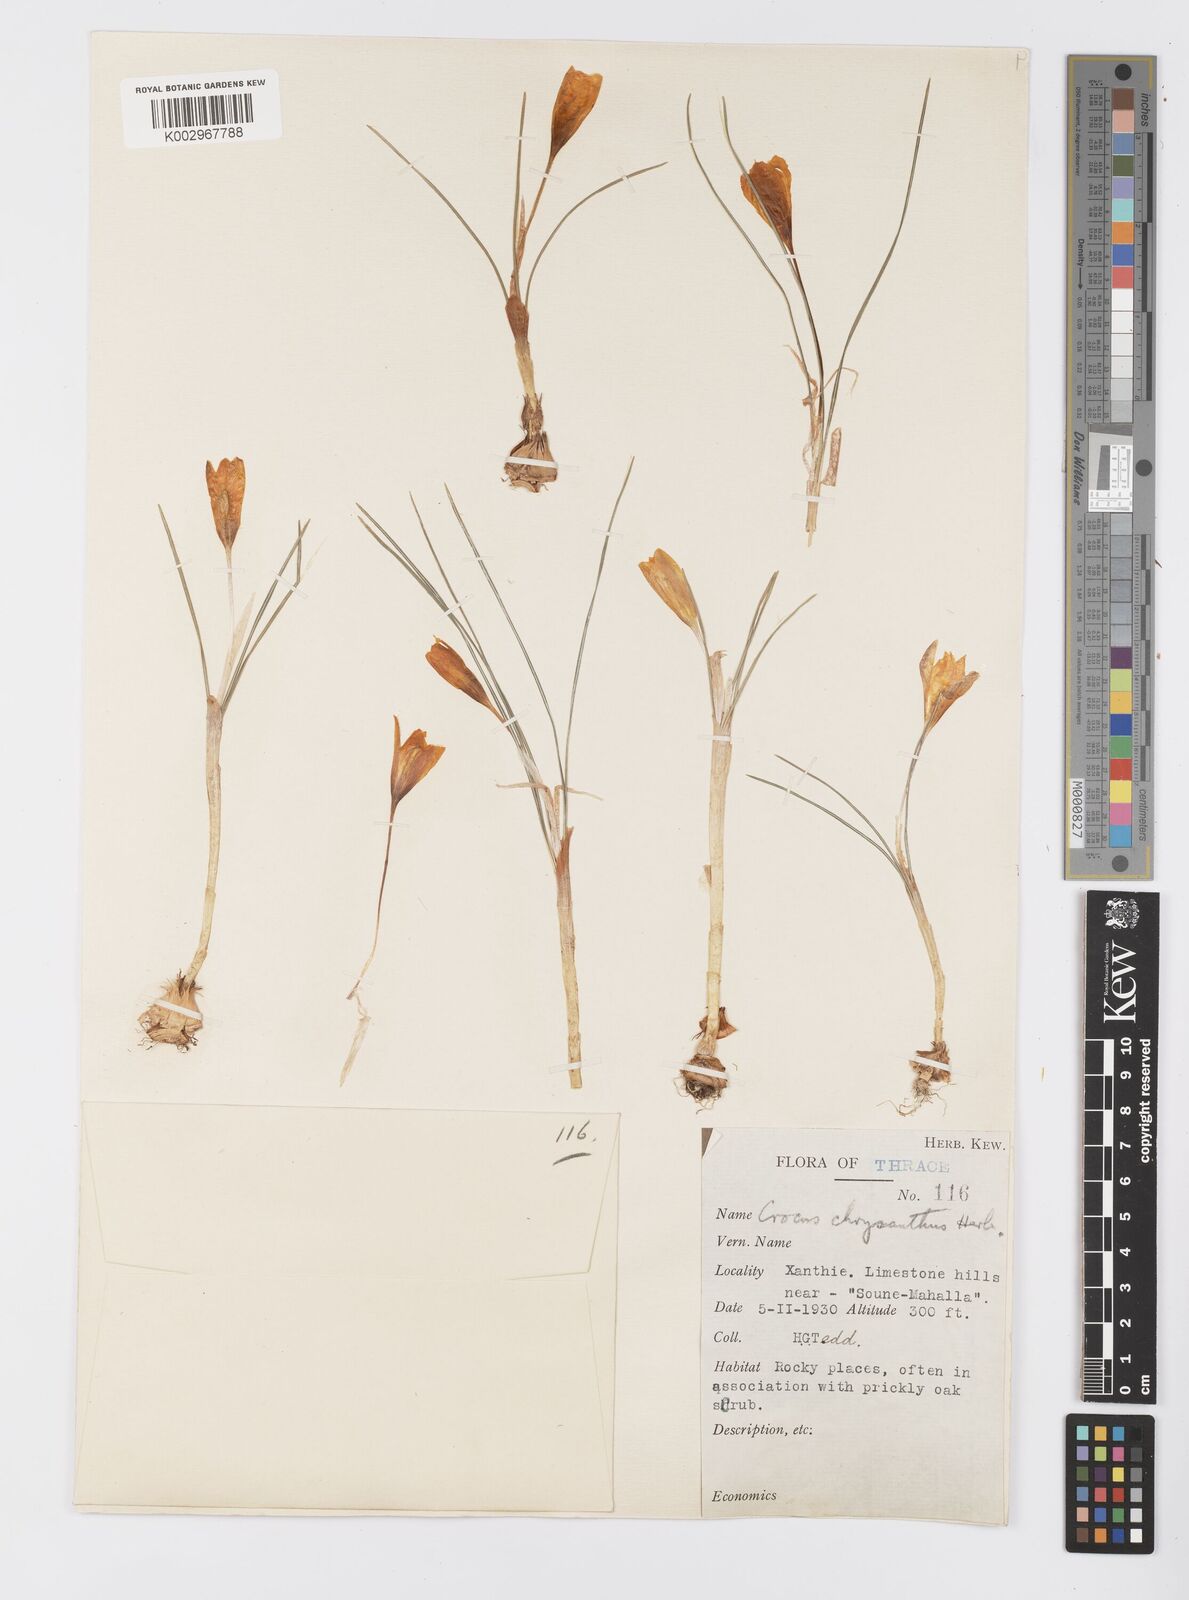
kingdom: Plantae
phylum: Tracheophyta
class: Liliopsida
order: Asparagales
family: Iridaceae
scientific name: Iridaceae
